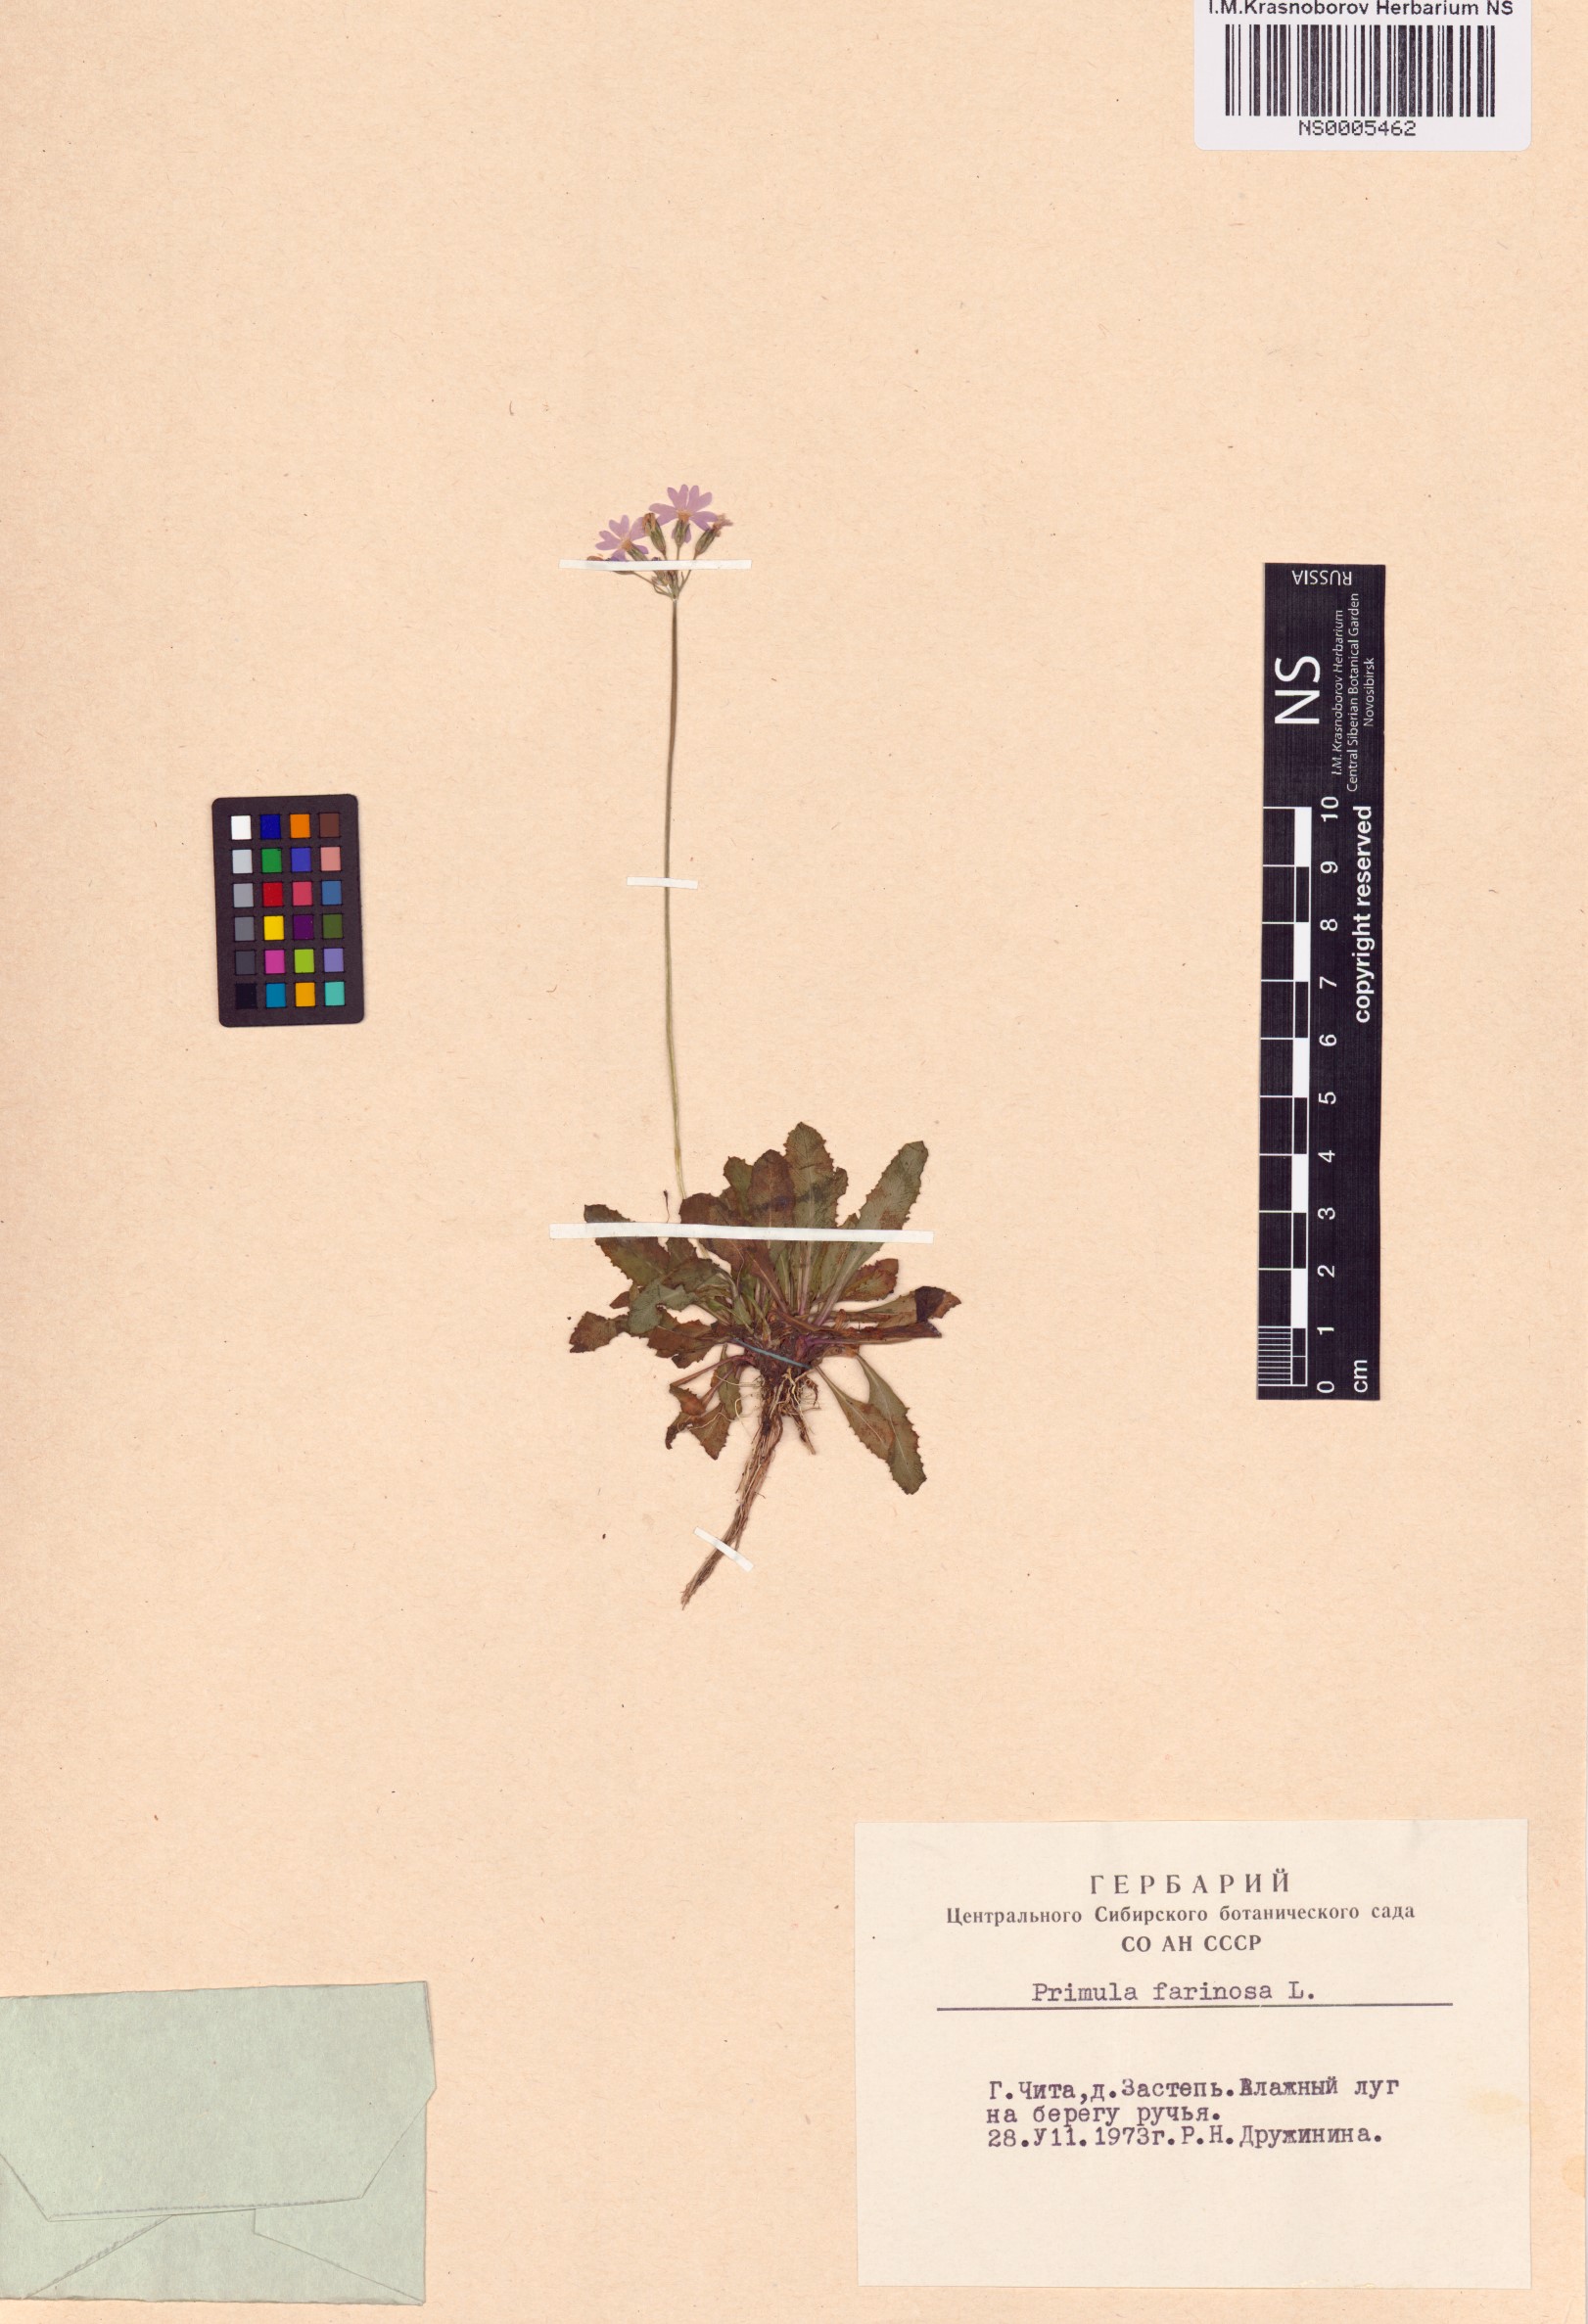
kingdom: Plantae
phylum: Tracheophyta
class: Magnoliopsida
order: Ericales
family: Primulaceae
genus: Primula
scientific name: Primula farinosa
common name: Bird's-eye primrose
